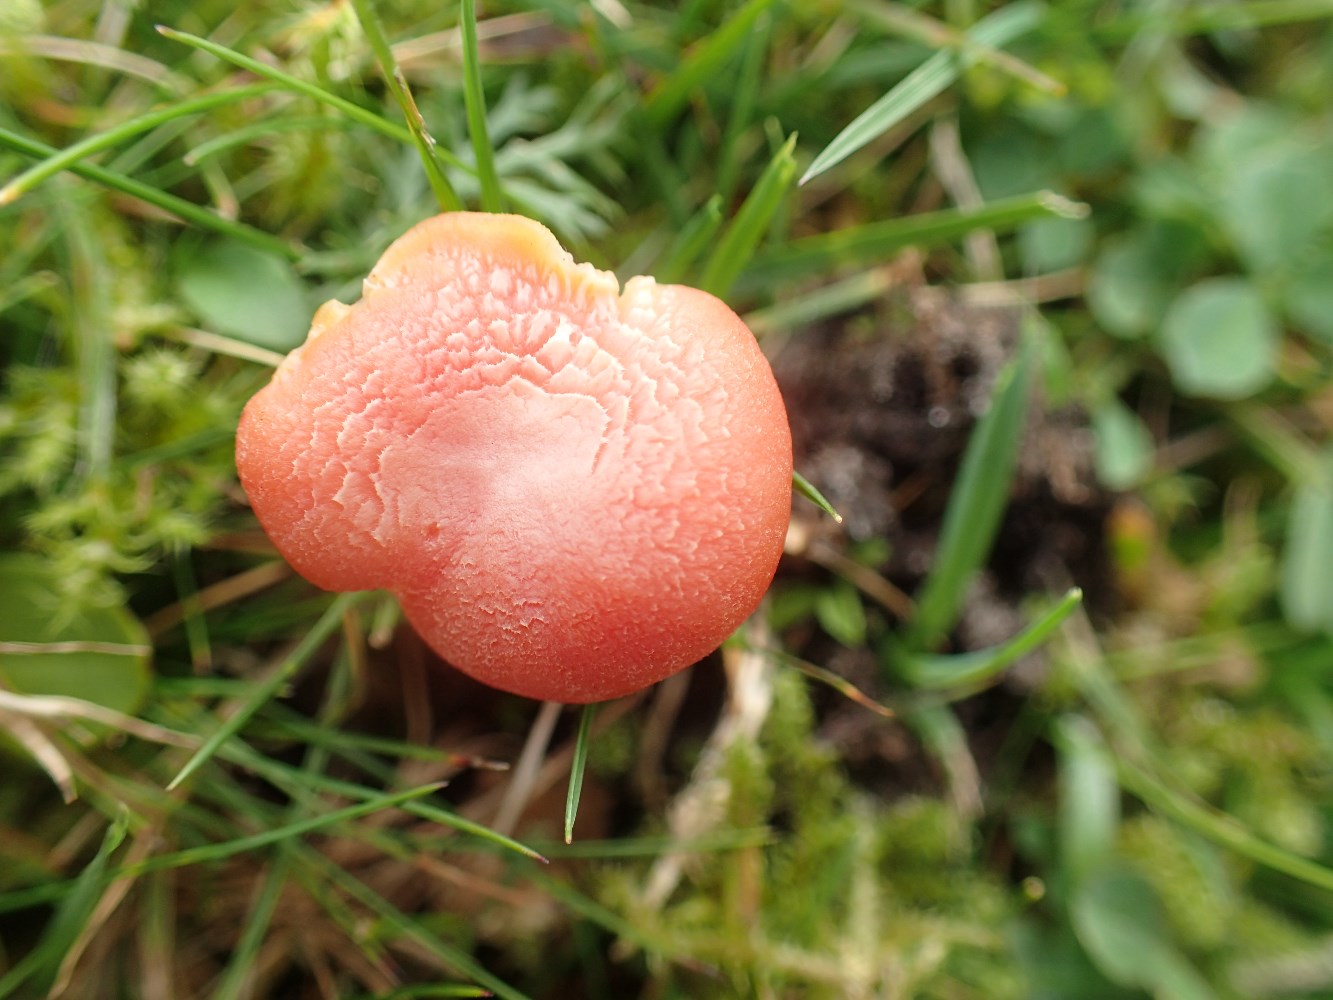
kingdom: Fungi
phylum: Basidiomycota
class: Agaricomycetes
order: Agaricales
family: Hygrophoraceae
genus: Hygrocybe
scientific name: Hygrocybe reidii
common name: honning-vokshat
